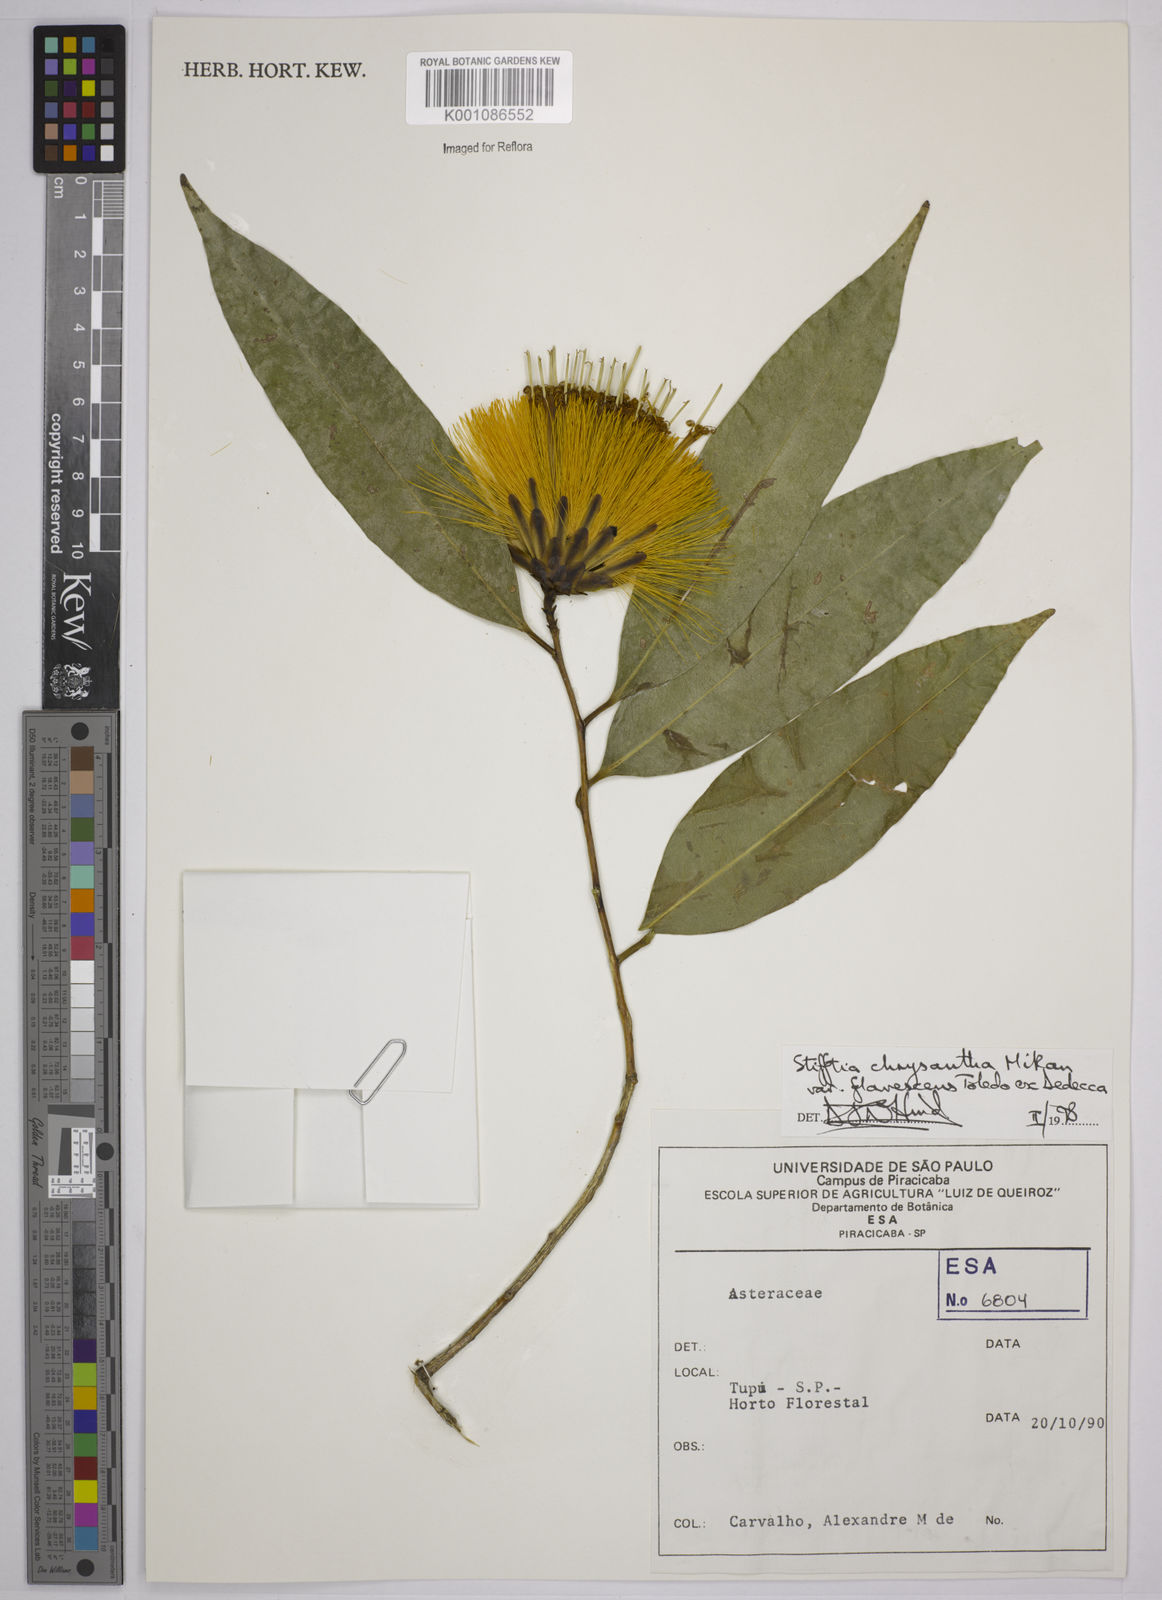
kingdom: Plantae
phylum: Tracheophyta
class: Magnoliopsida
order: Asterales
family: Asteraceae
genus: Stifftia
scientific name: Stifftia chrysantha
